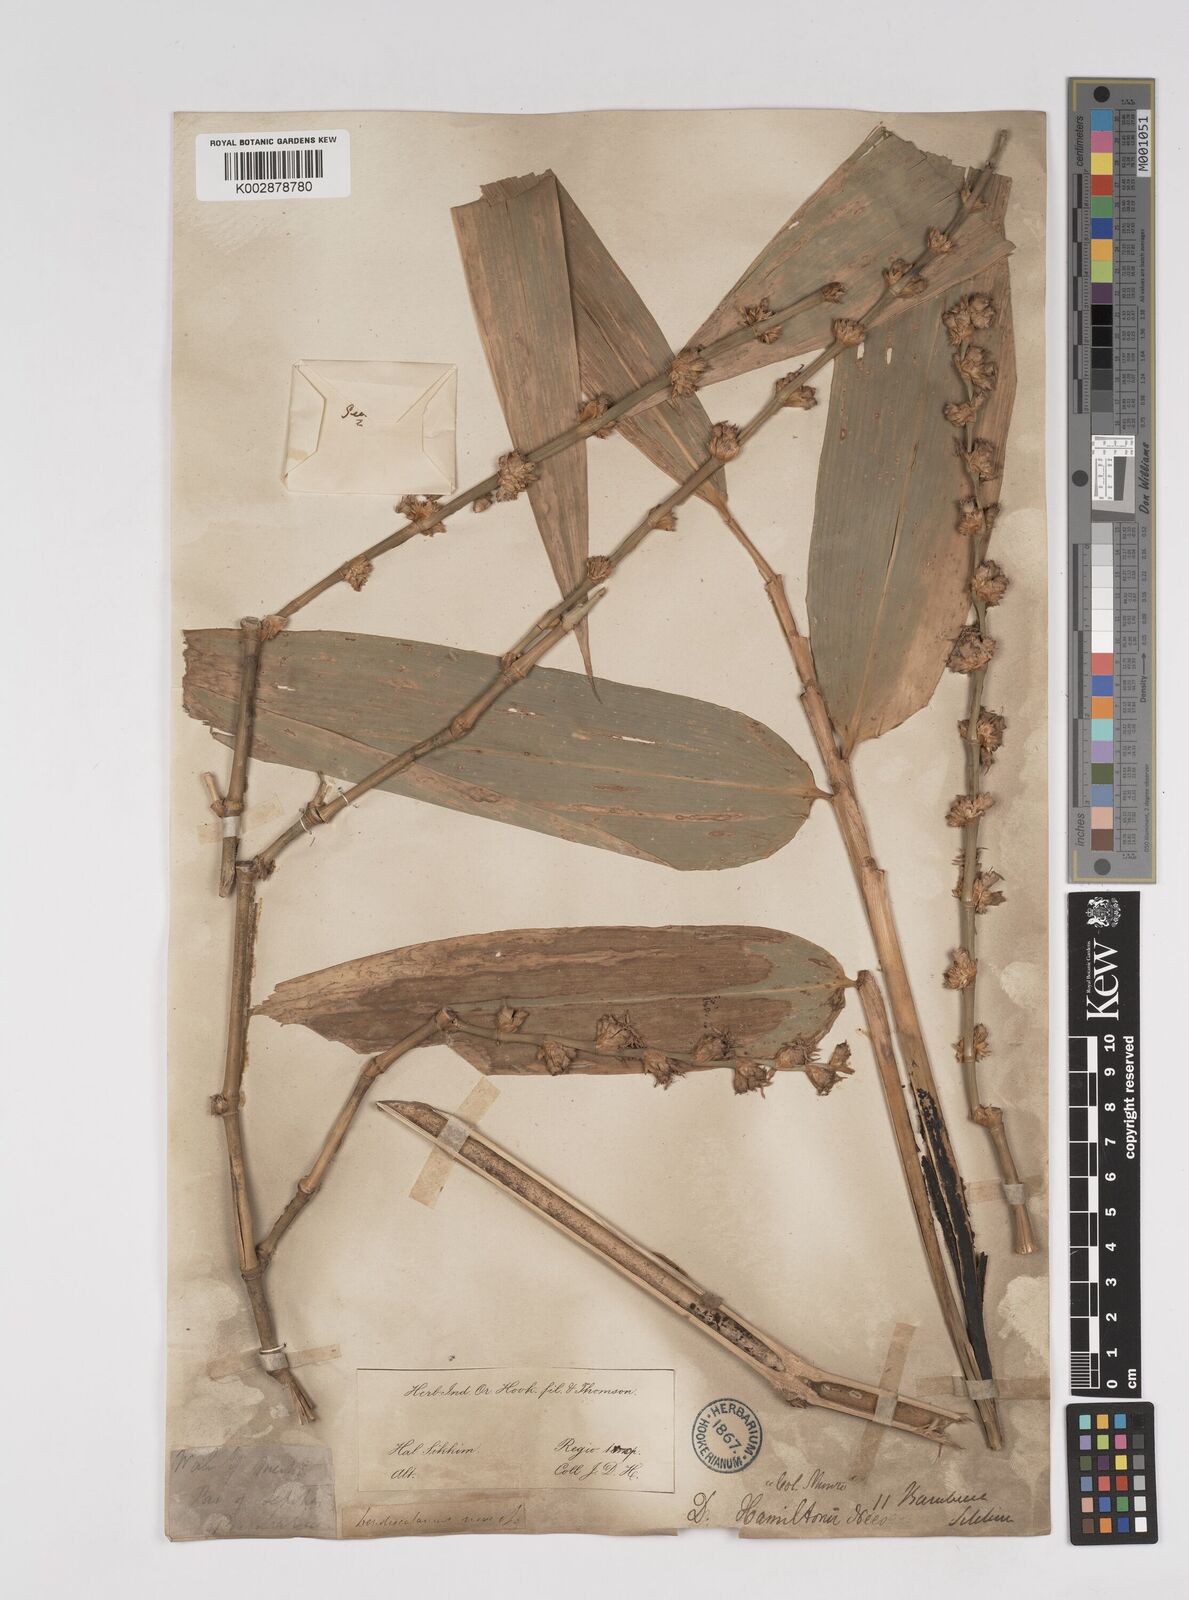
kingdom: Plantae
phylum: Tracheophyta
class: Liliopsida
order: Poales
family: Poaceae
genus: Dendrocalamus
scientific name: Dendrocalamus hamiltonii
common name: Tama bamboo
